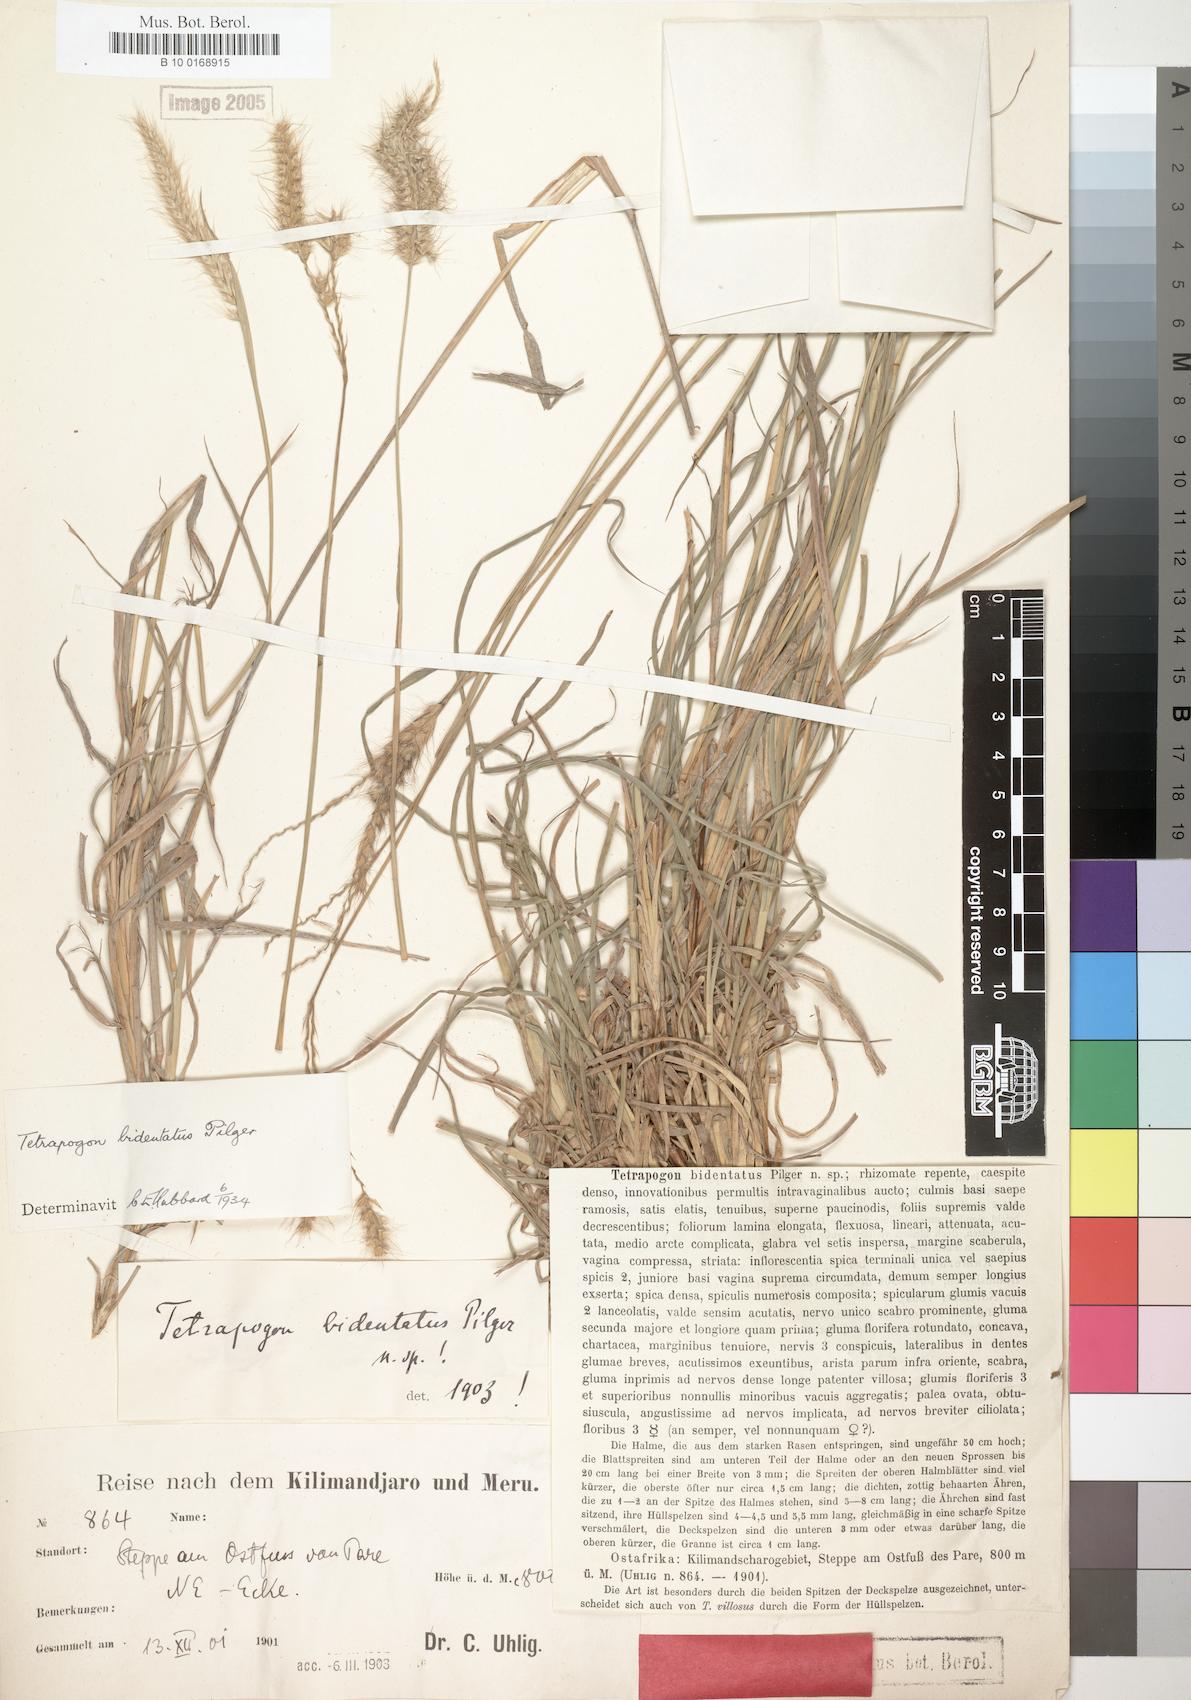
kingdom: Plantae
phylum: Tracheophyta
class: Liliopsida
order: Poales
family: Poaceae
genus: Tetrapogon
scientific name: Tetrapogon bidentatus
